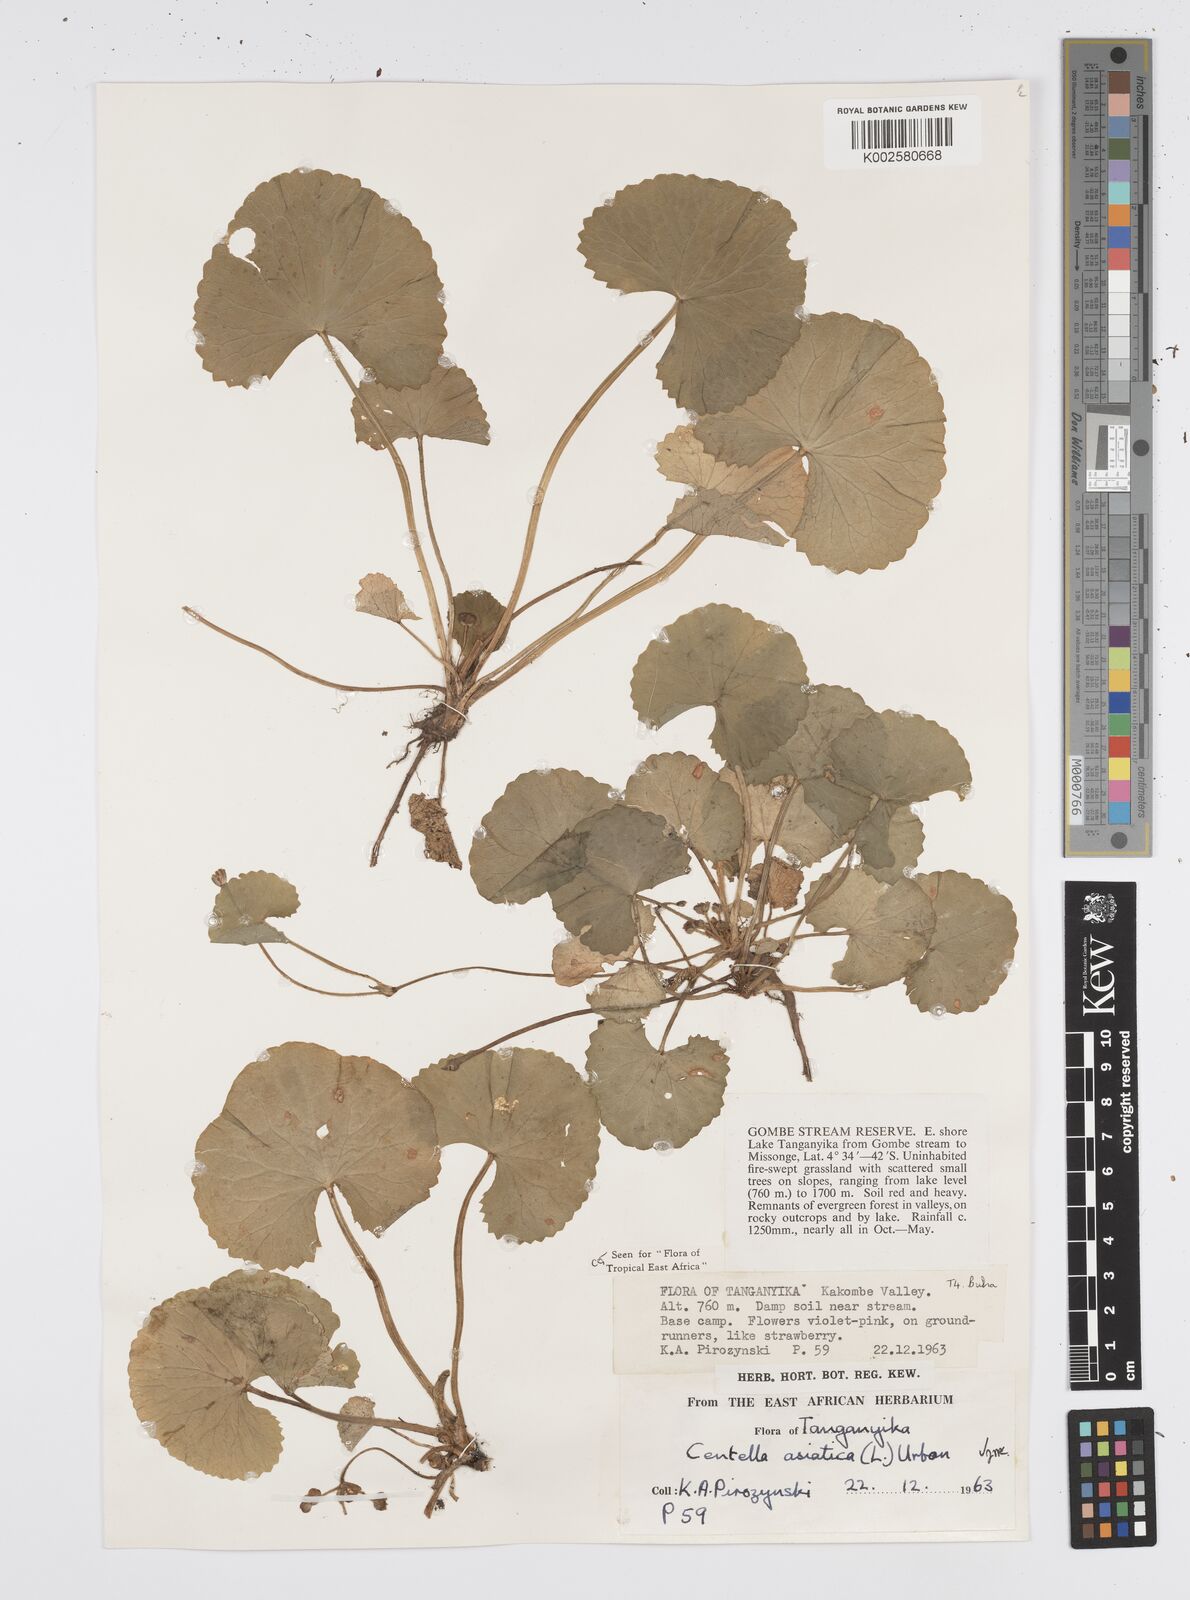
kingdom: Plantae
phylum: Tracheophyta
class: Magnoliopsida
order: Apiales
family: Apiaceae
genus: Centella
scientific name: Centella asiatica
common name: Spadeleaf
